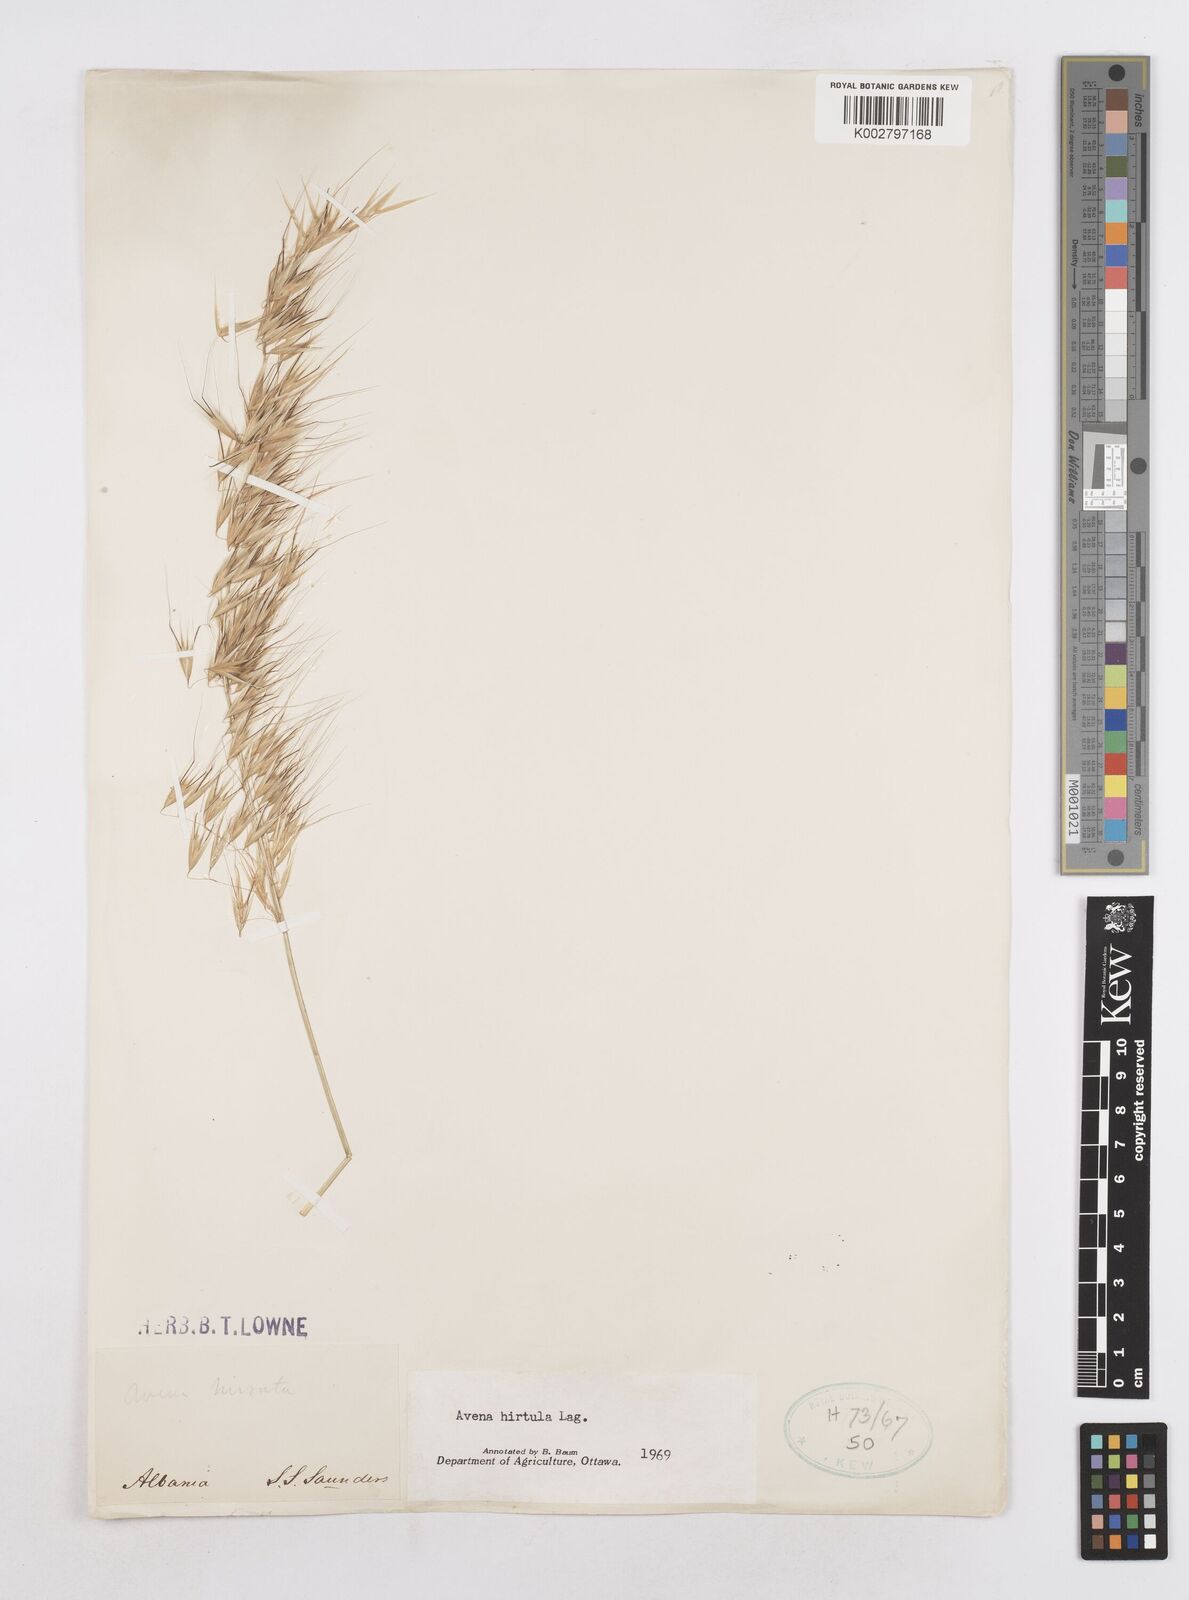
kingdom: Plantae
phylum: Tracheophyta
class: Liliopsida
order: Poales
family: Poaceae
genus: Avena
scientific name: Avena
